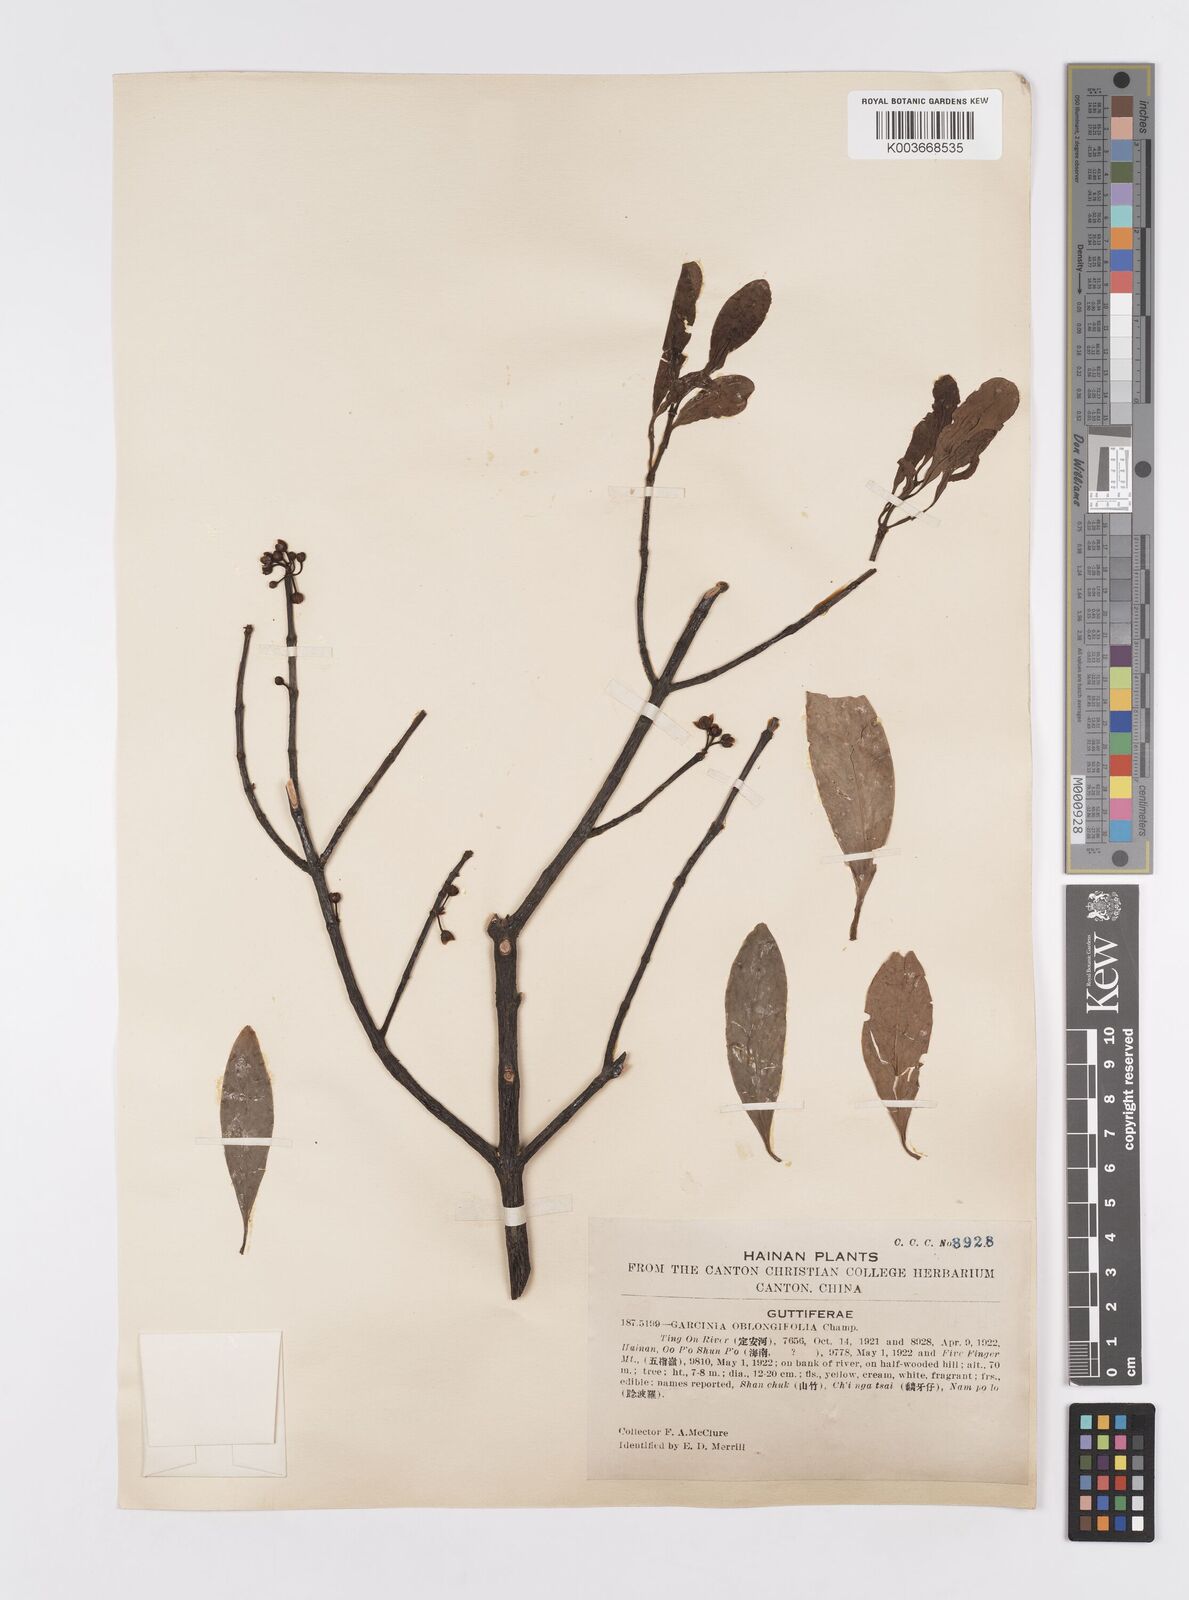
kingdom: Plantae
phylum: Tracheophyta
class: Magnoliopsida
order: Malpighiales
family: Clusiaceae
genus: Garcinia
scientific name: Garcinia oblongifolia
